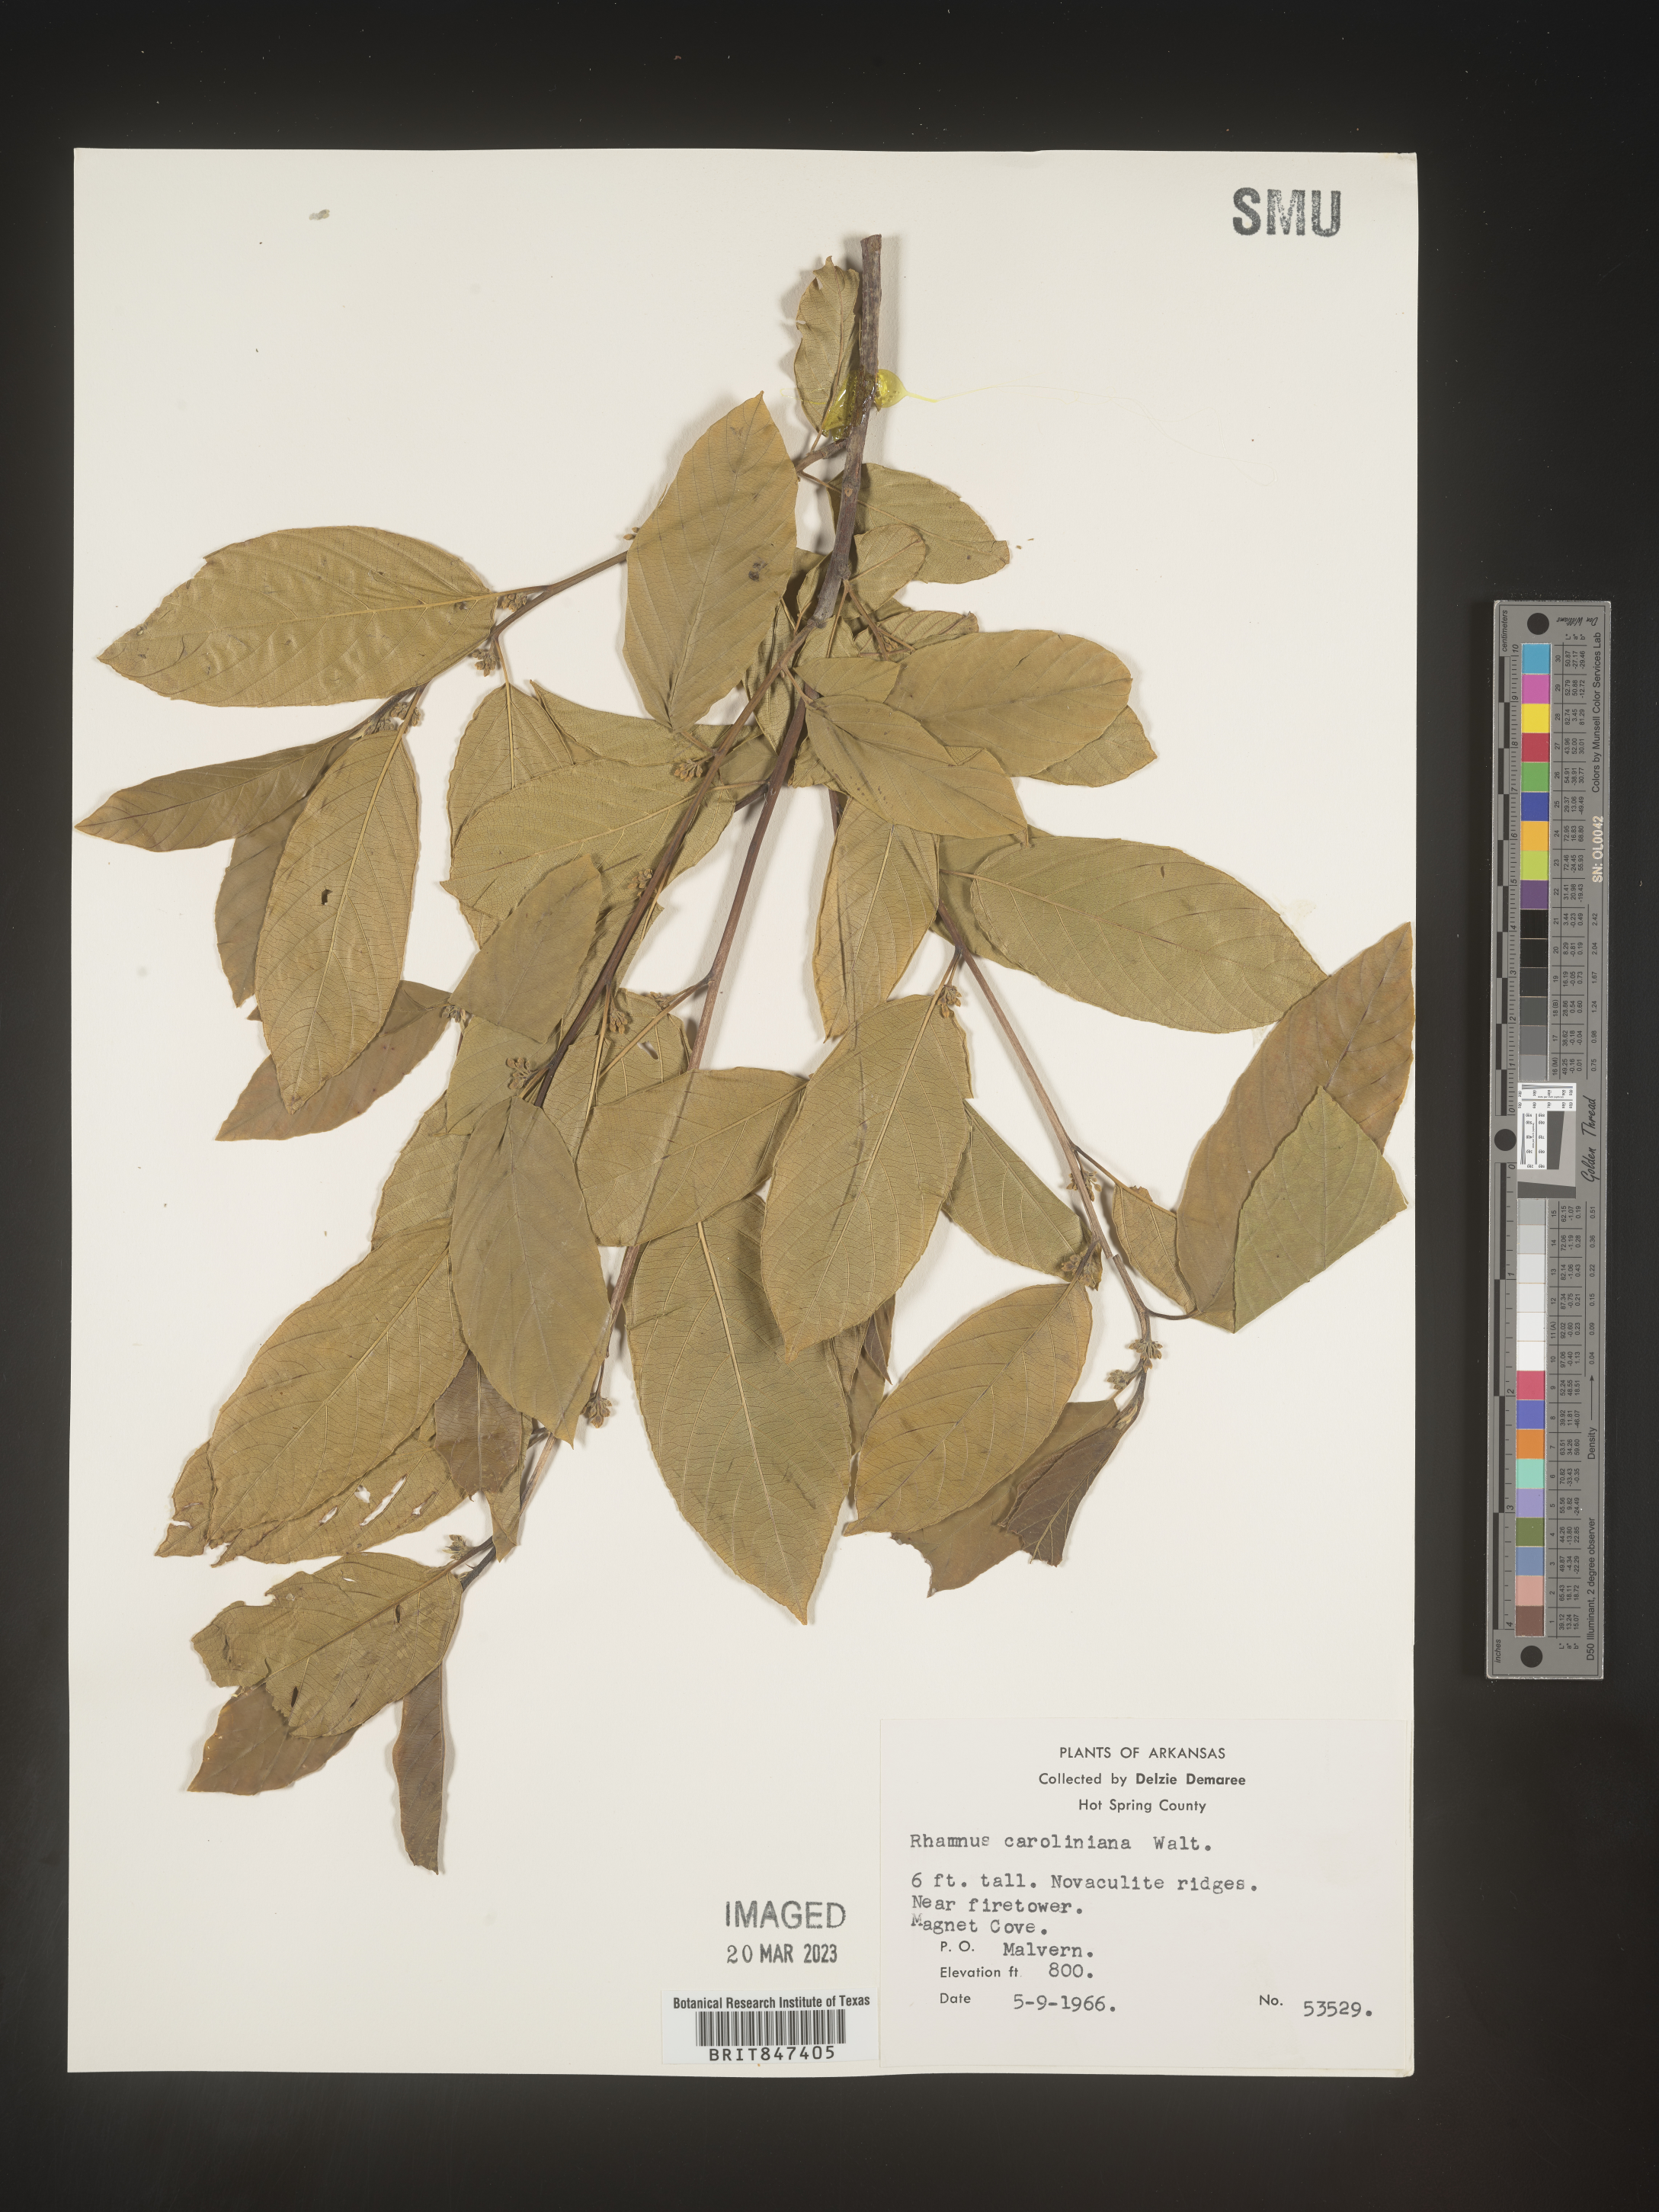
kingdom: Plantae
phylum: Tracheophyta
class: Magnoliopsida
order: Rosales
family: Rhamnaceae
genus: Frangula
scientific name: Frangula caroliniana
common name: Carolina buckthorn
